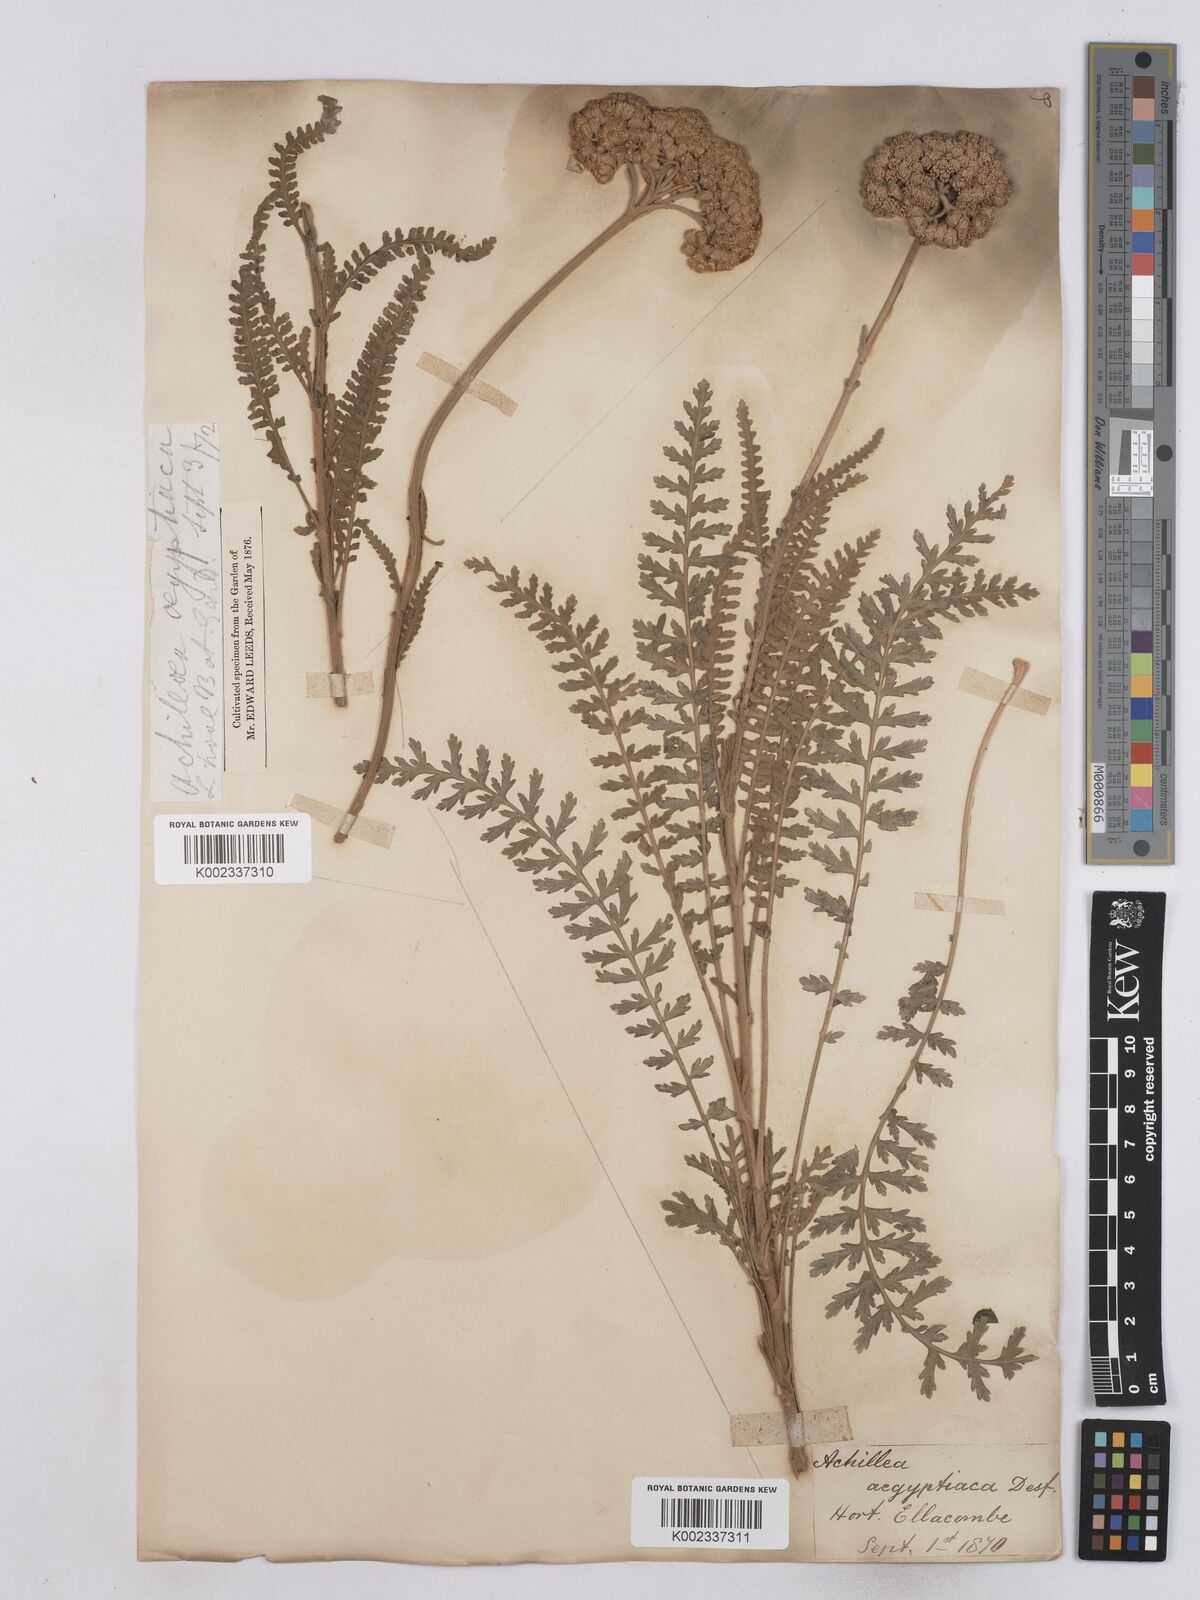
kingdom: Plantae
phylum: Tracheophyta
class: Magnoliopsida
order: Asterales
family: Asteraceae
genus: Achillea
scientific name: Achillea aegyptiaca
